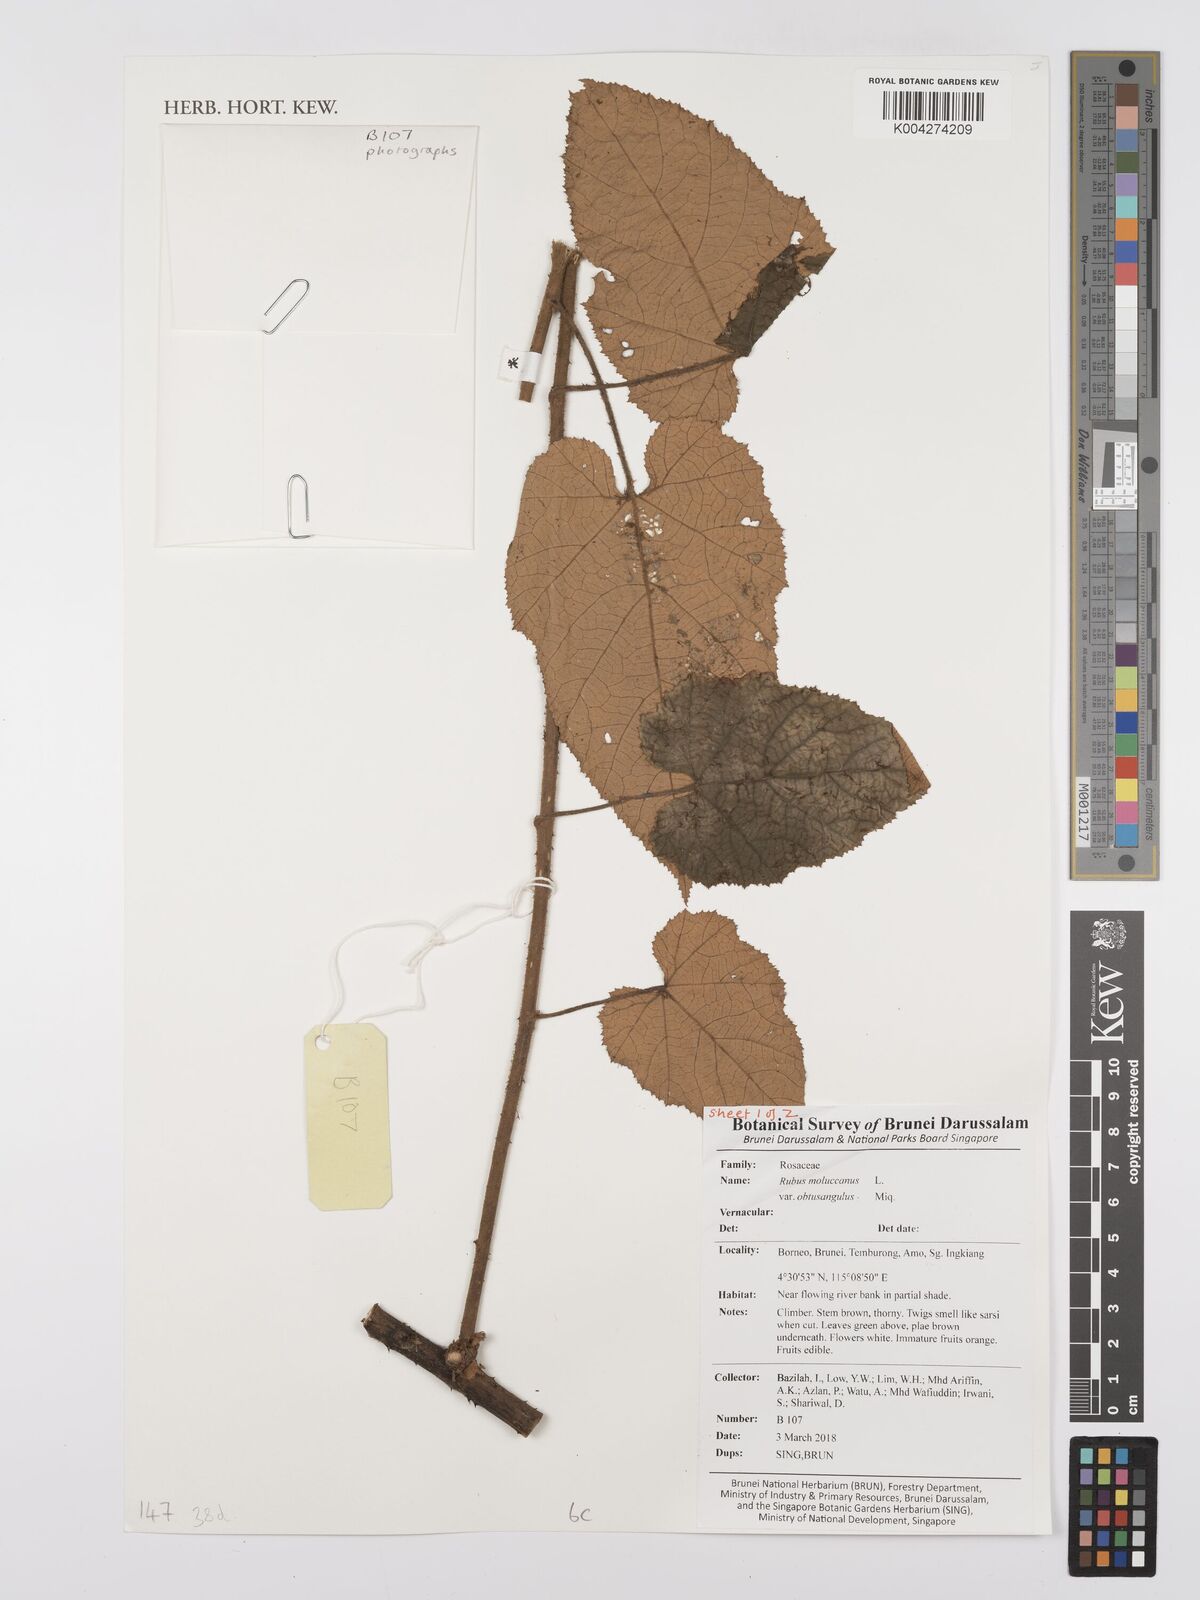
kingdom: Plantae
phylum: Tracheophyta
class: Magnoliopsida
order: Rosales
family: Rosaceae
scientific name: Rosaceae
